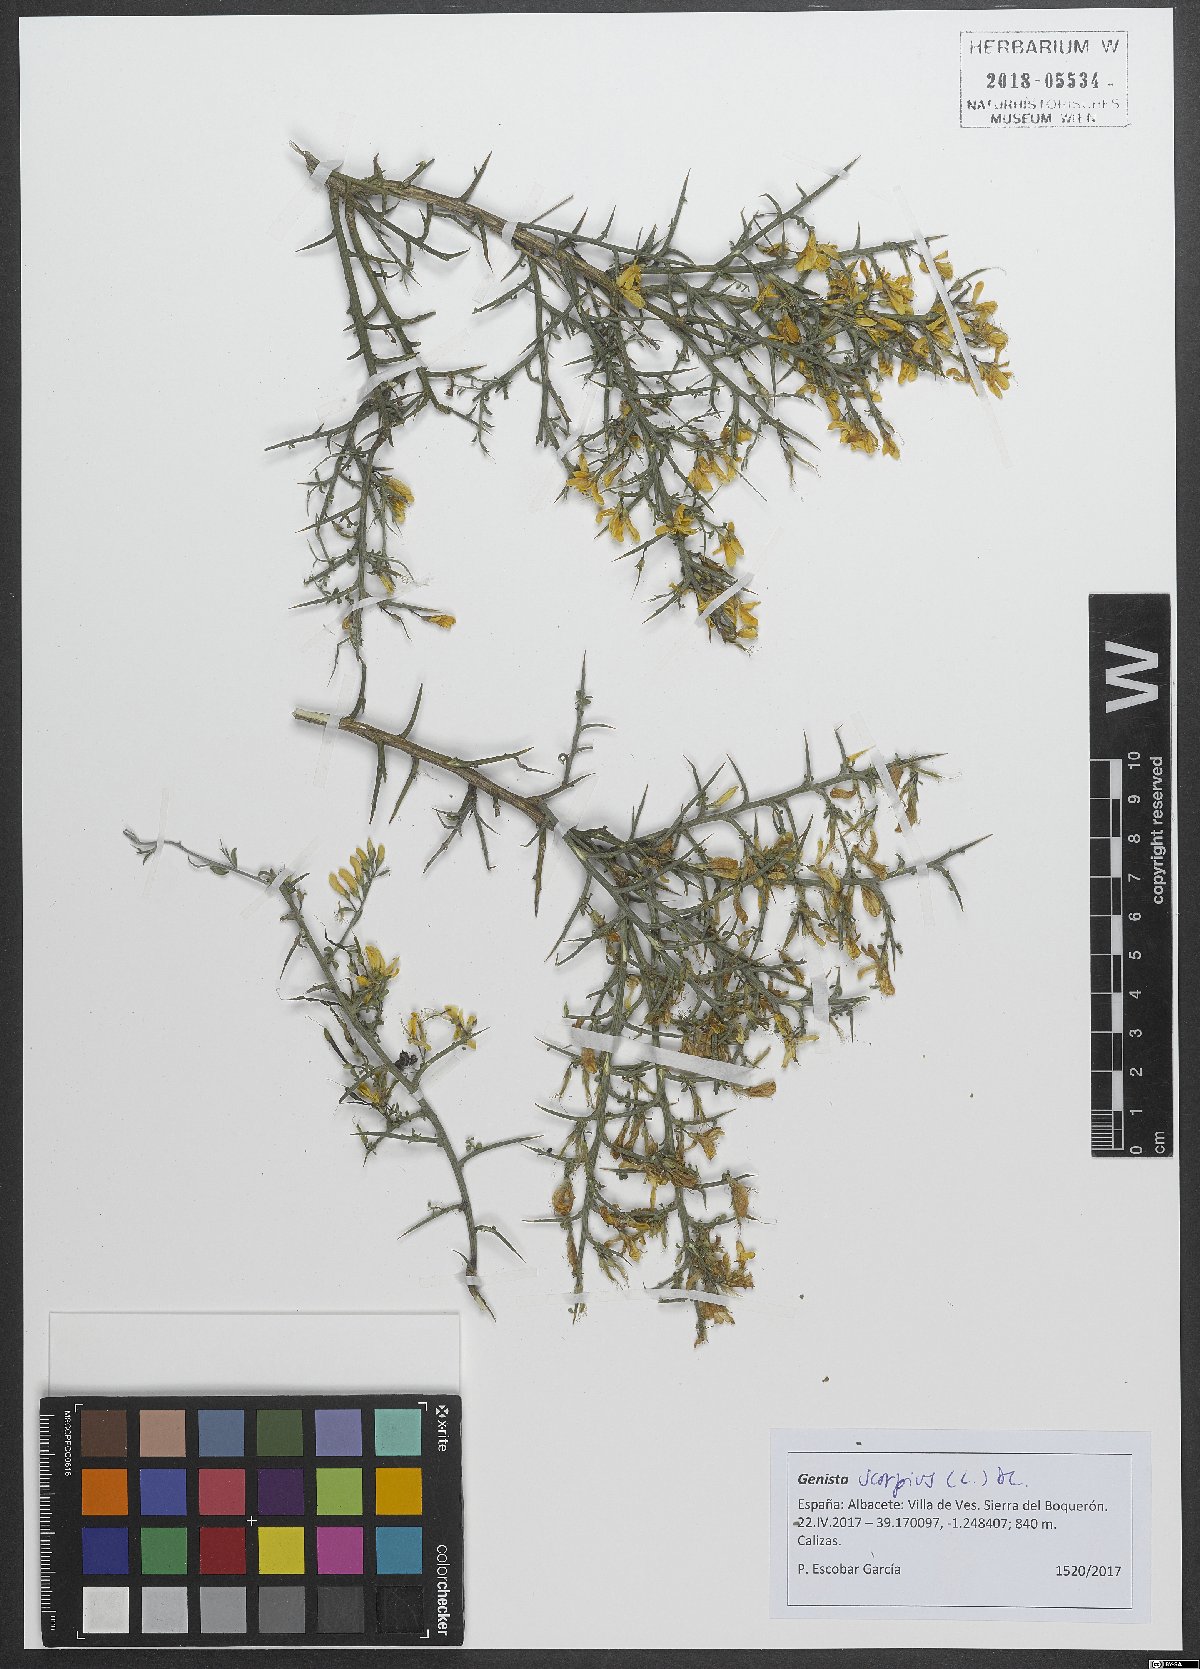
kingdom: Plantae
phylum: Tracheophyta
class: Magnoliopsida
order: Fabales
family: Fabaceae
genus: Genista
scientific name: Genista scorpius
